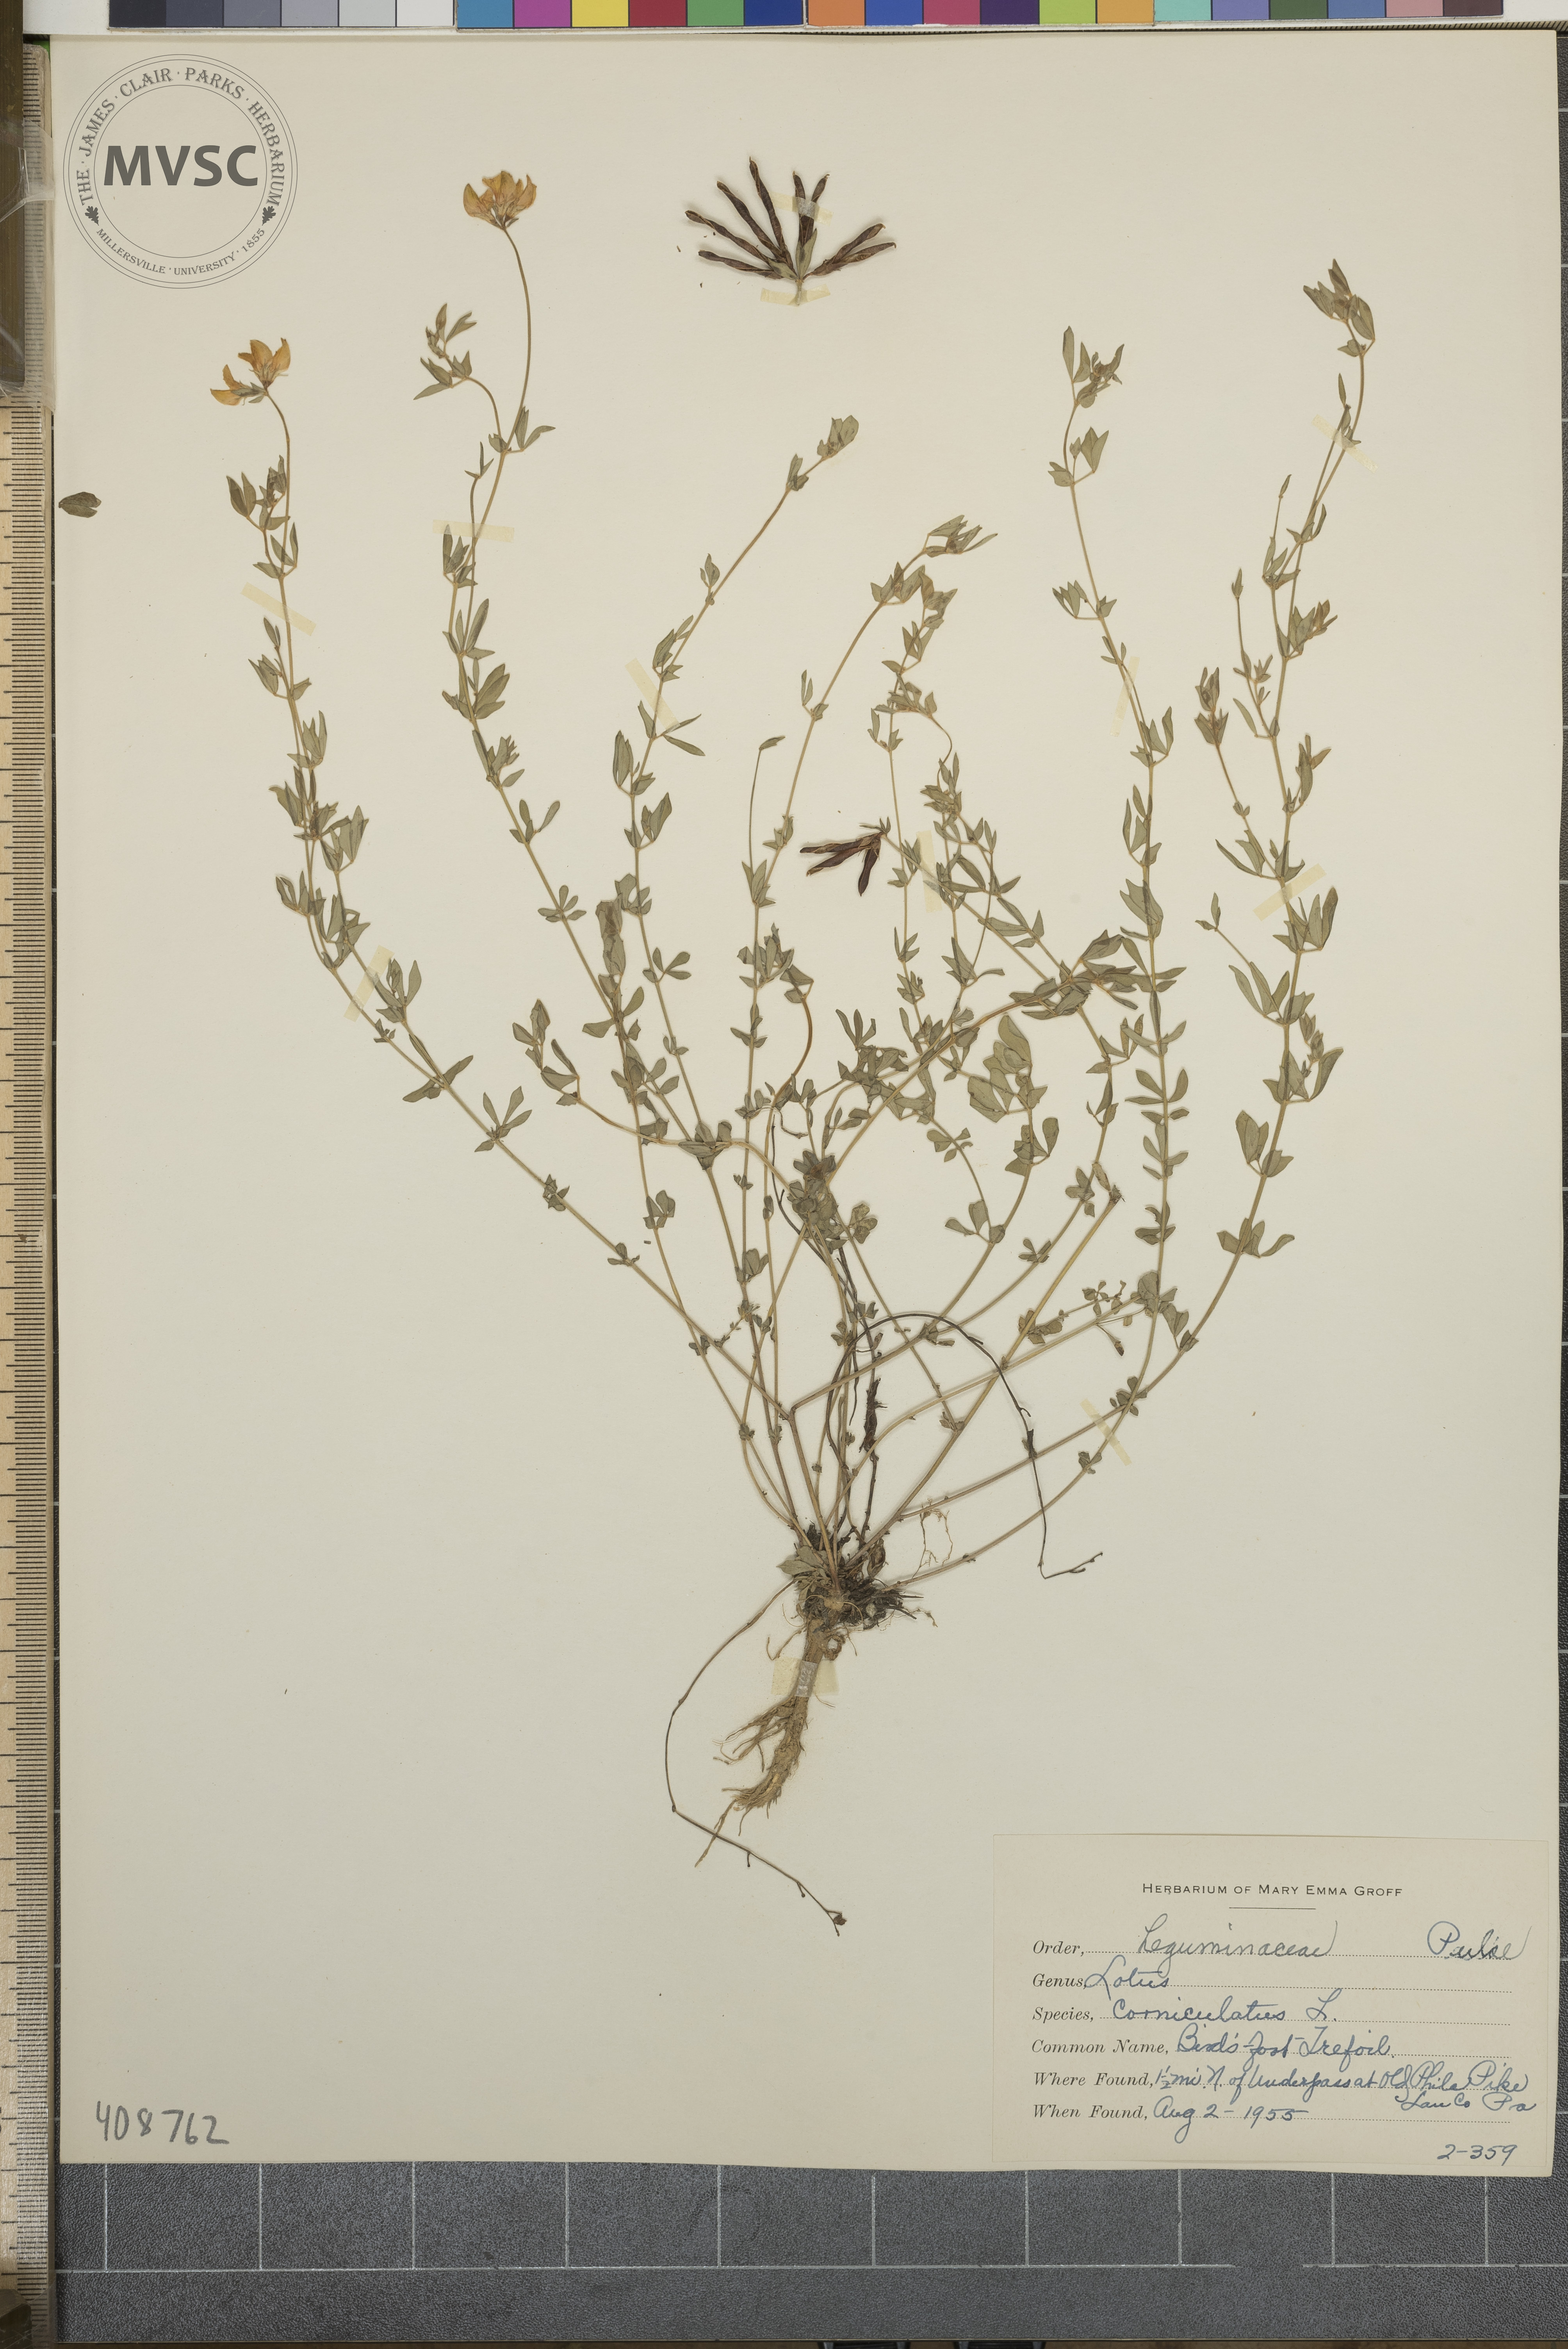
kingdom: Plantae
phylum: Tracheophyta
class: Magnoliopsida
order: Fabales
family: Fabaceae
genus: Lotus
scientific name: Lotus corniculatus
